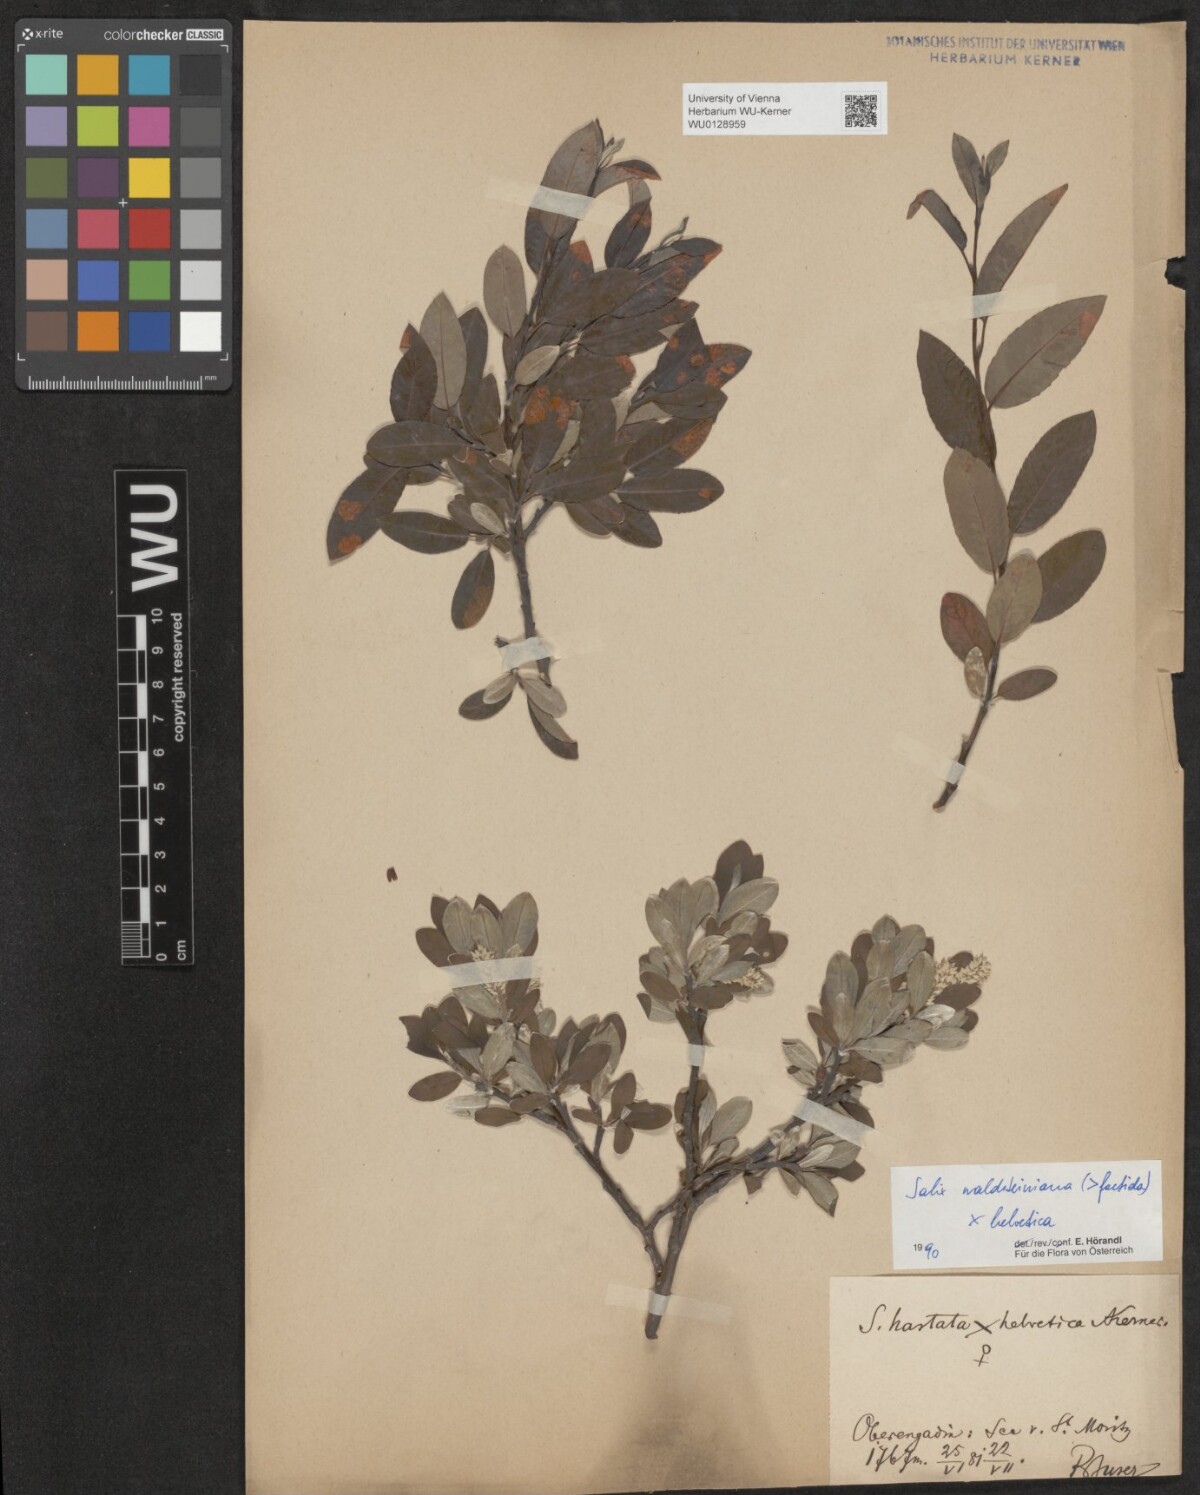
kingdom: Plantae
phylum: Tracheophyta
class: Magnoliopsida
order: Malpighiales
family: Salicaceae
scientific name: Salicaceae
